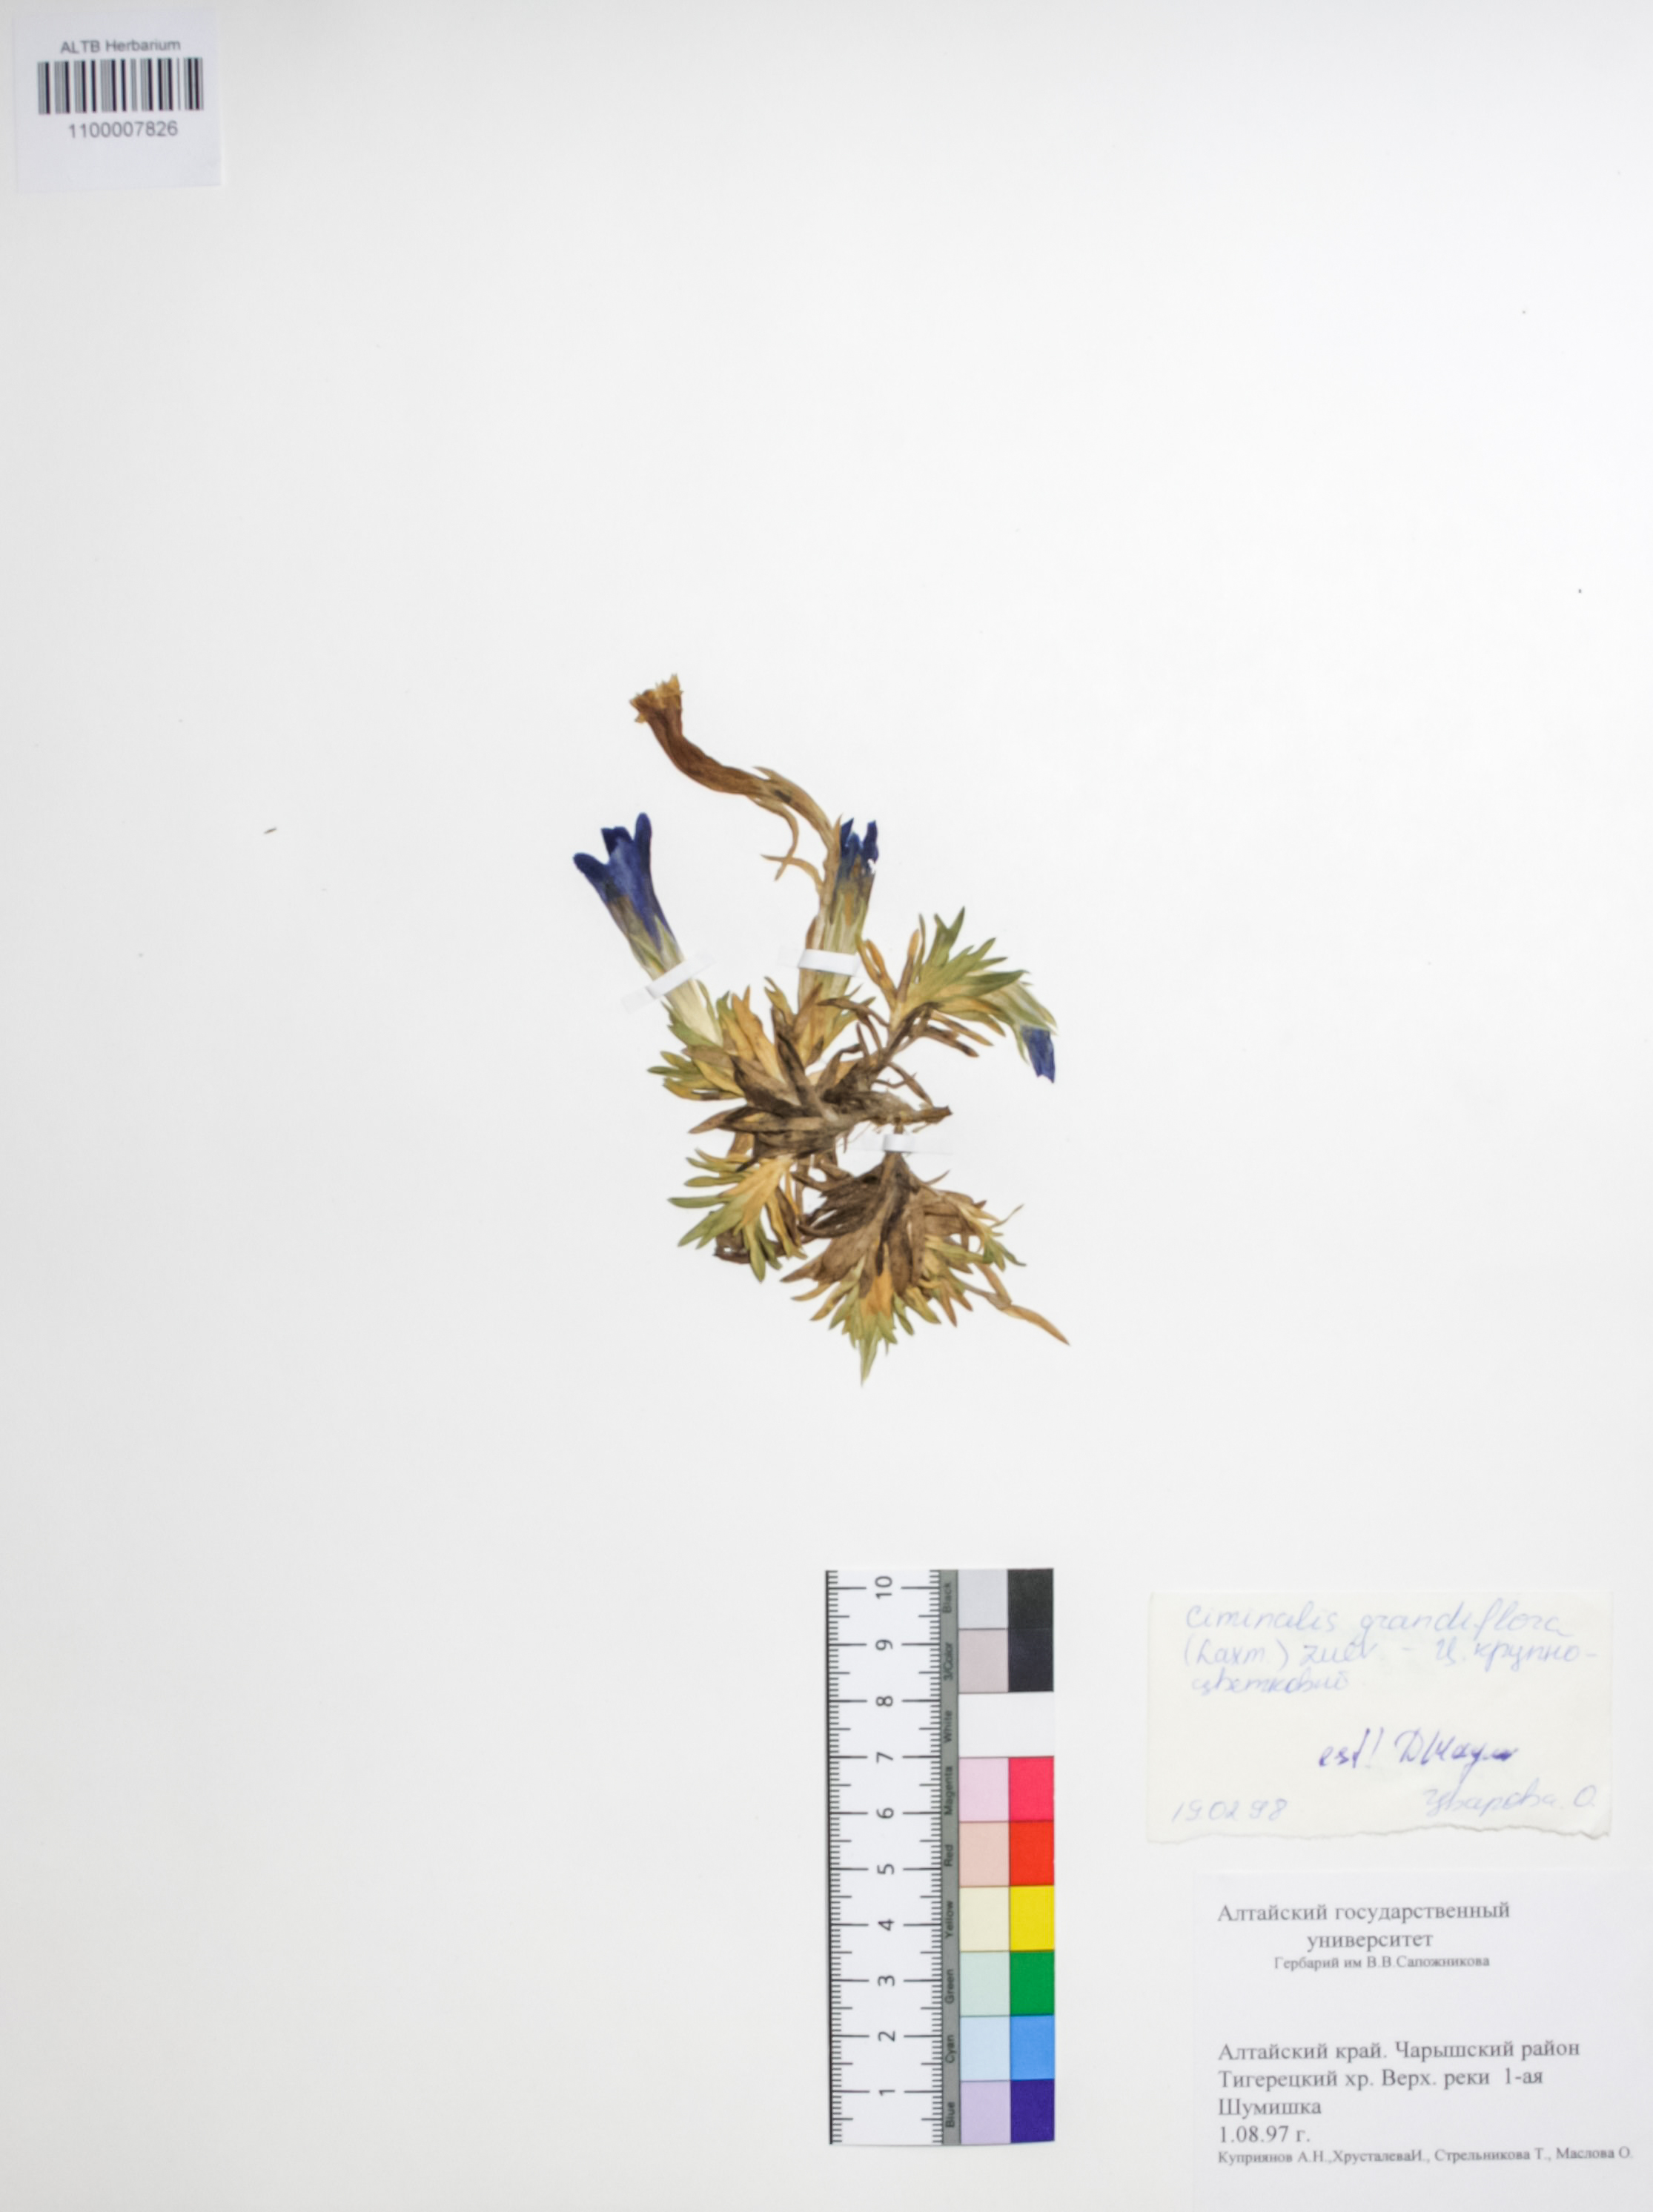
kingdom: Plantae
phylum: Tracheophyta
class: Magnoliopsida
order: Gentianales
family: Gentianaceae
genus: Gentiana
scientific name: Gentiana grandiflora
